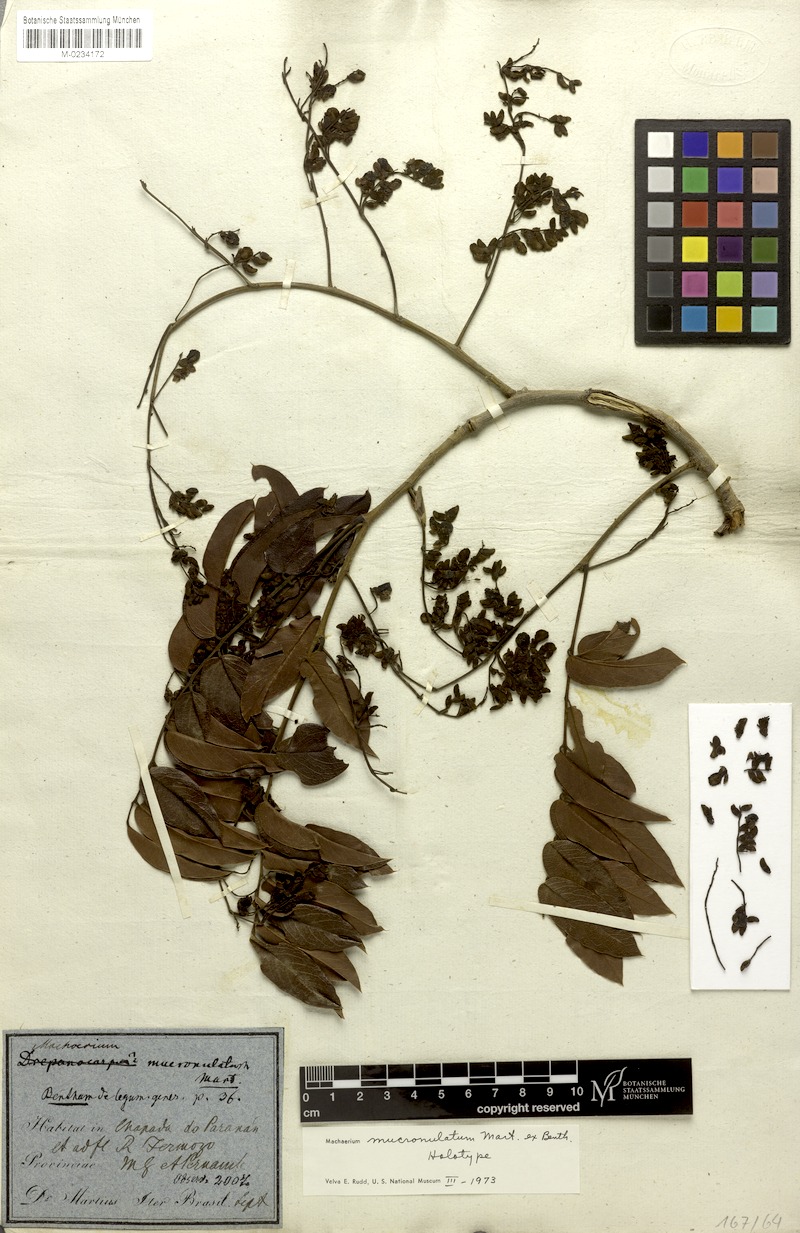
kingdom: Plantae
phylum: Tracheophyta
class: Magnoliopsida
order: Fabales
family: Fabaceae
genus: Machaerium
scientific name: Machaerium mucronulatum
